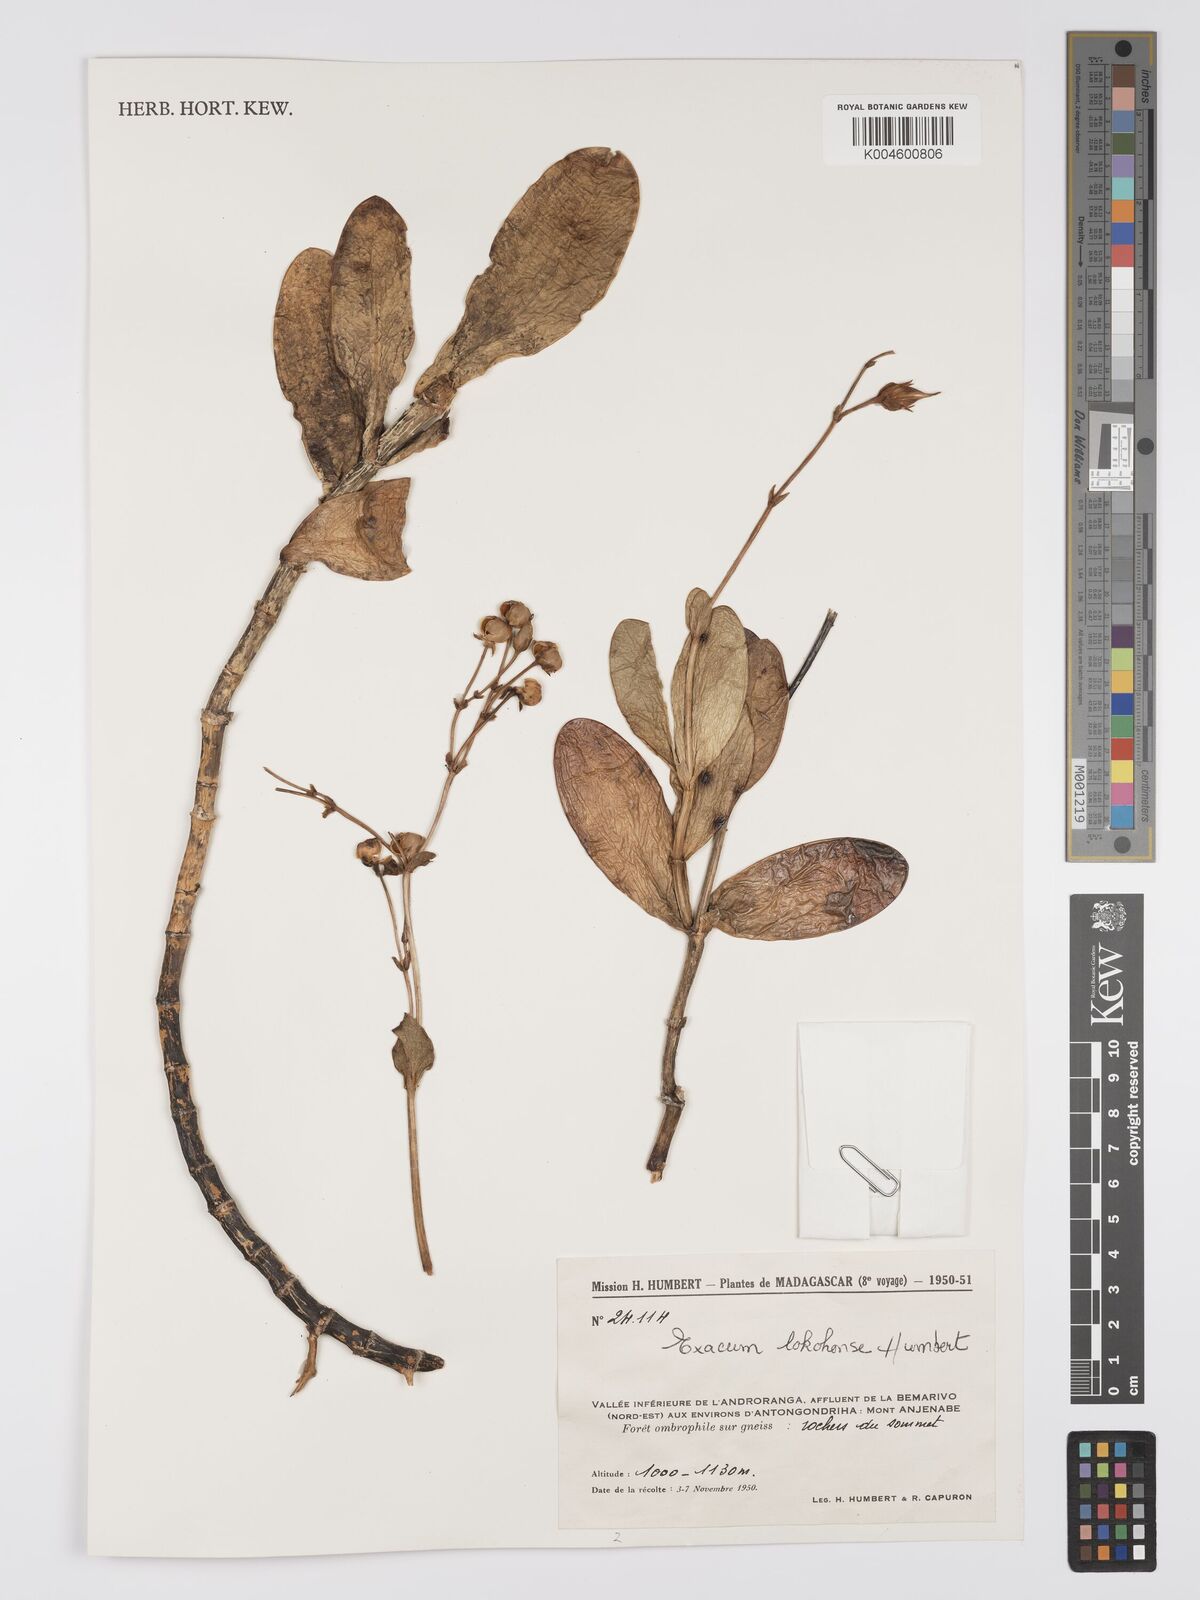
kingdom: Plantae
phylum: Tracheophyta
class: Magnoliopsida
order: Gentianales
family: Gentianaceae
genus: Exacum
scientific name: Exacum lokohense
